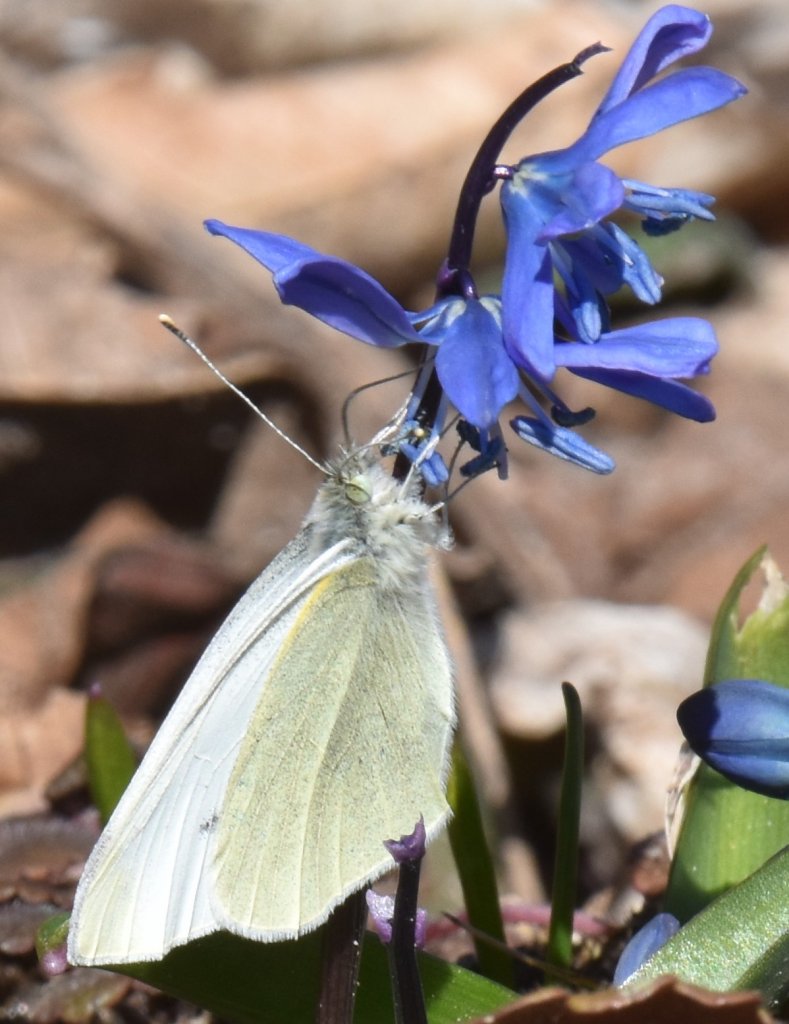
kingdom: Animalia
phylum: Arthropoda
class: Insecta
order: Lepidoptera
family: Pieridae
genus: Pieris
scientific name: Pieris rapae
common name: Cabbage White
